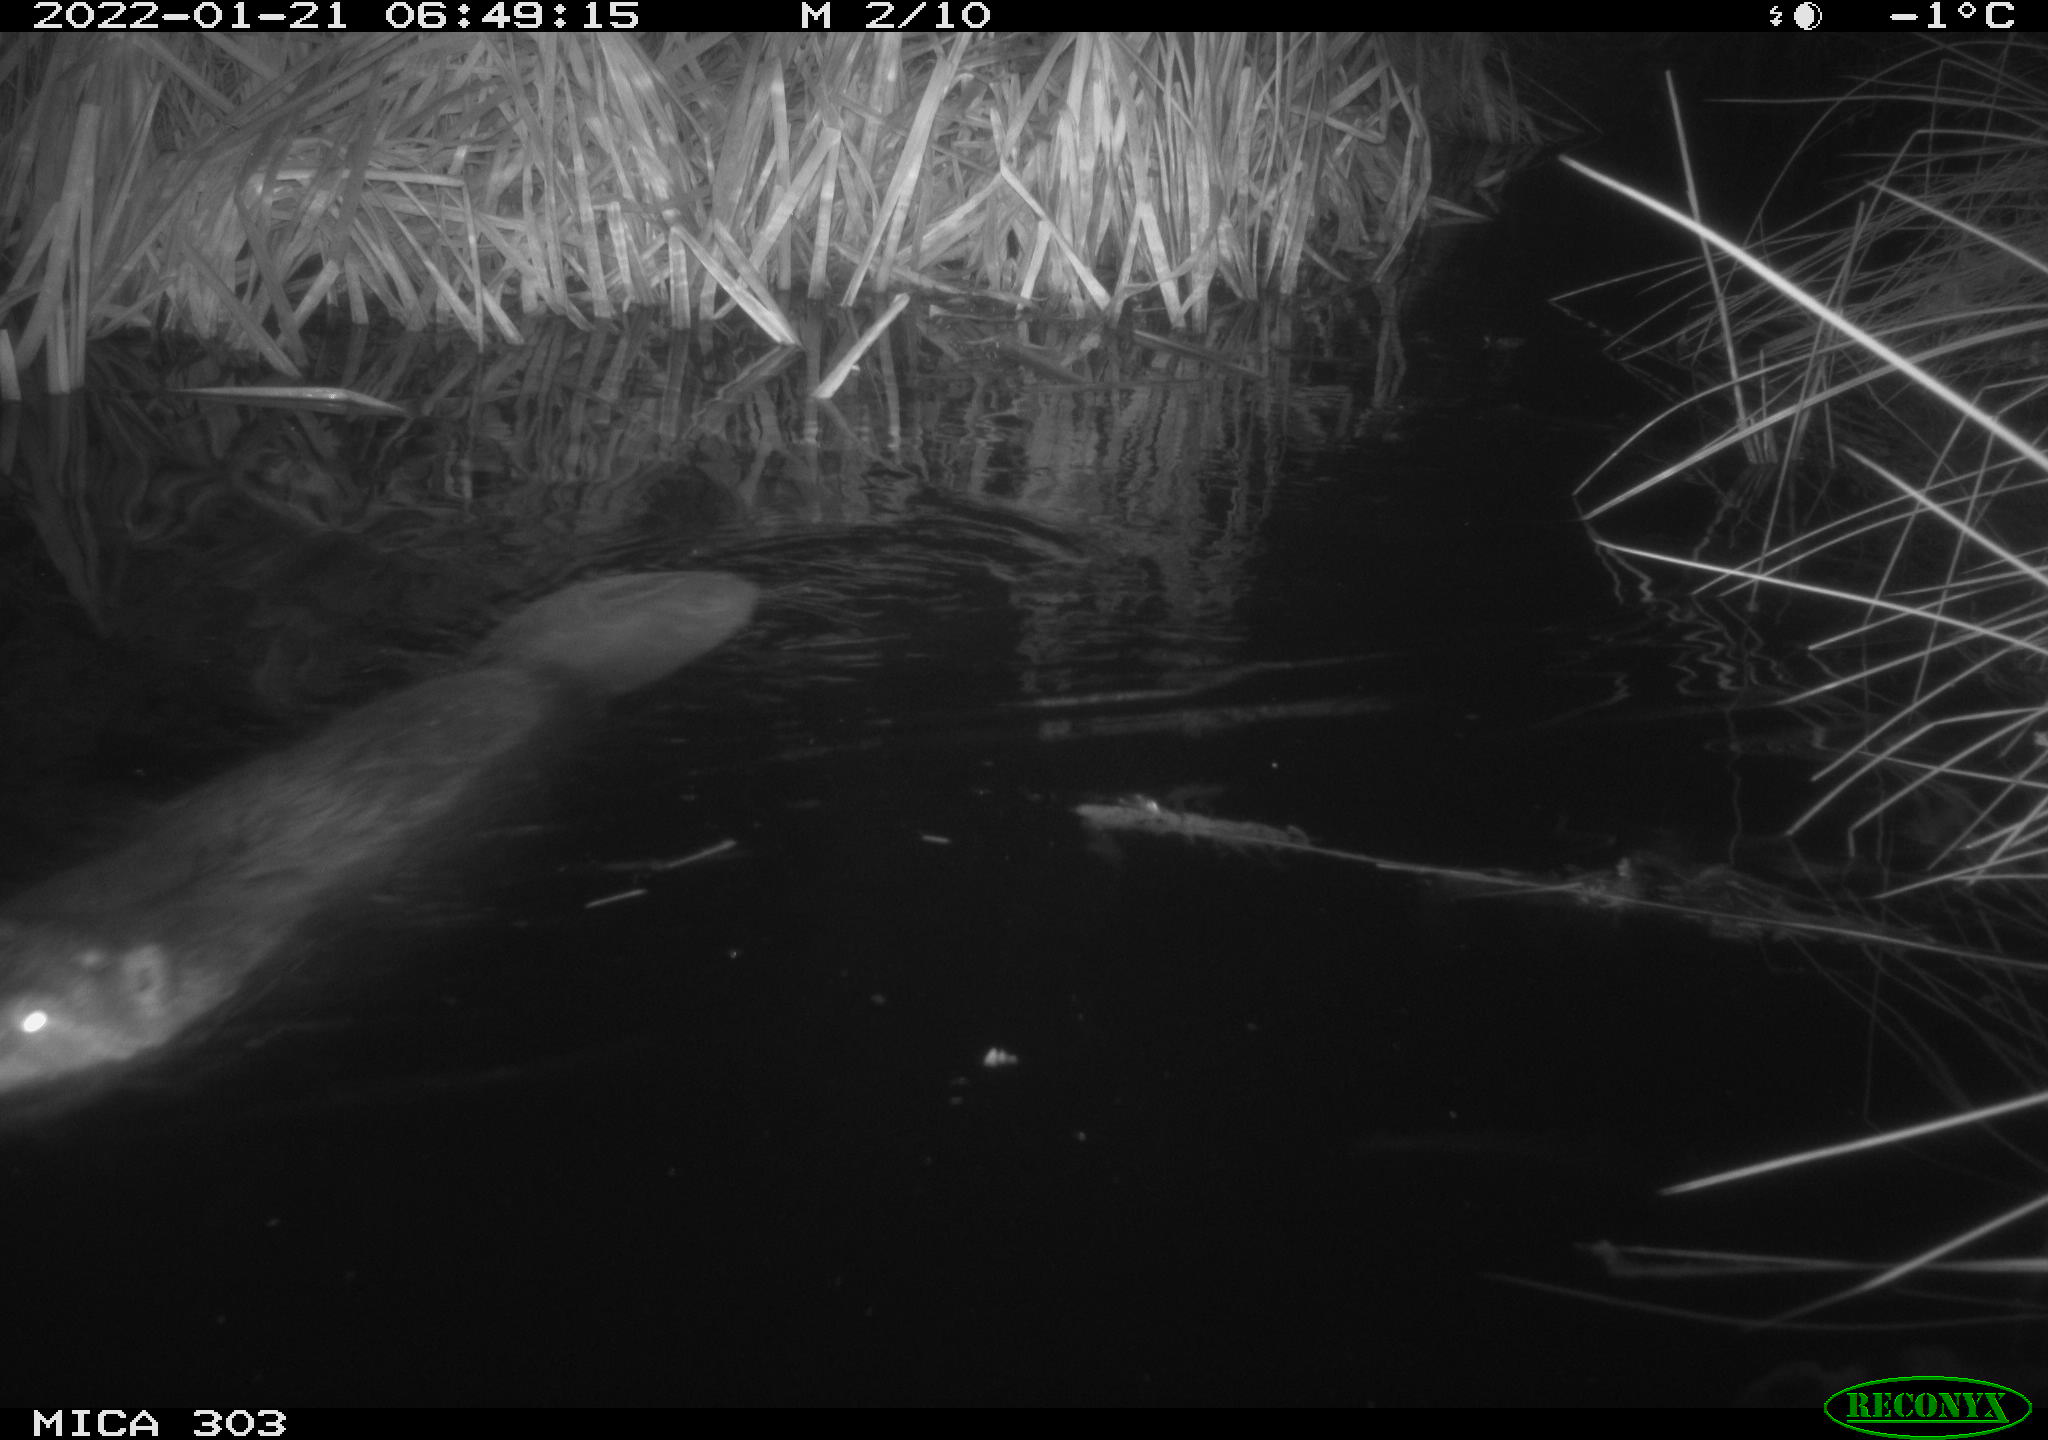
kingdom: Animalia
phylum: Chordata
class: Mammalia
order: Rodentia
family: Castoridae
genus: Castor
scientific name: Castor fiber
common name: Eurasian beaver
